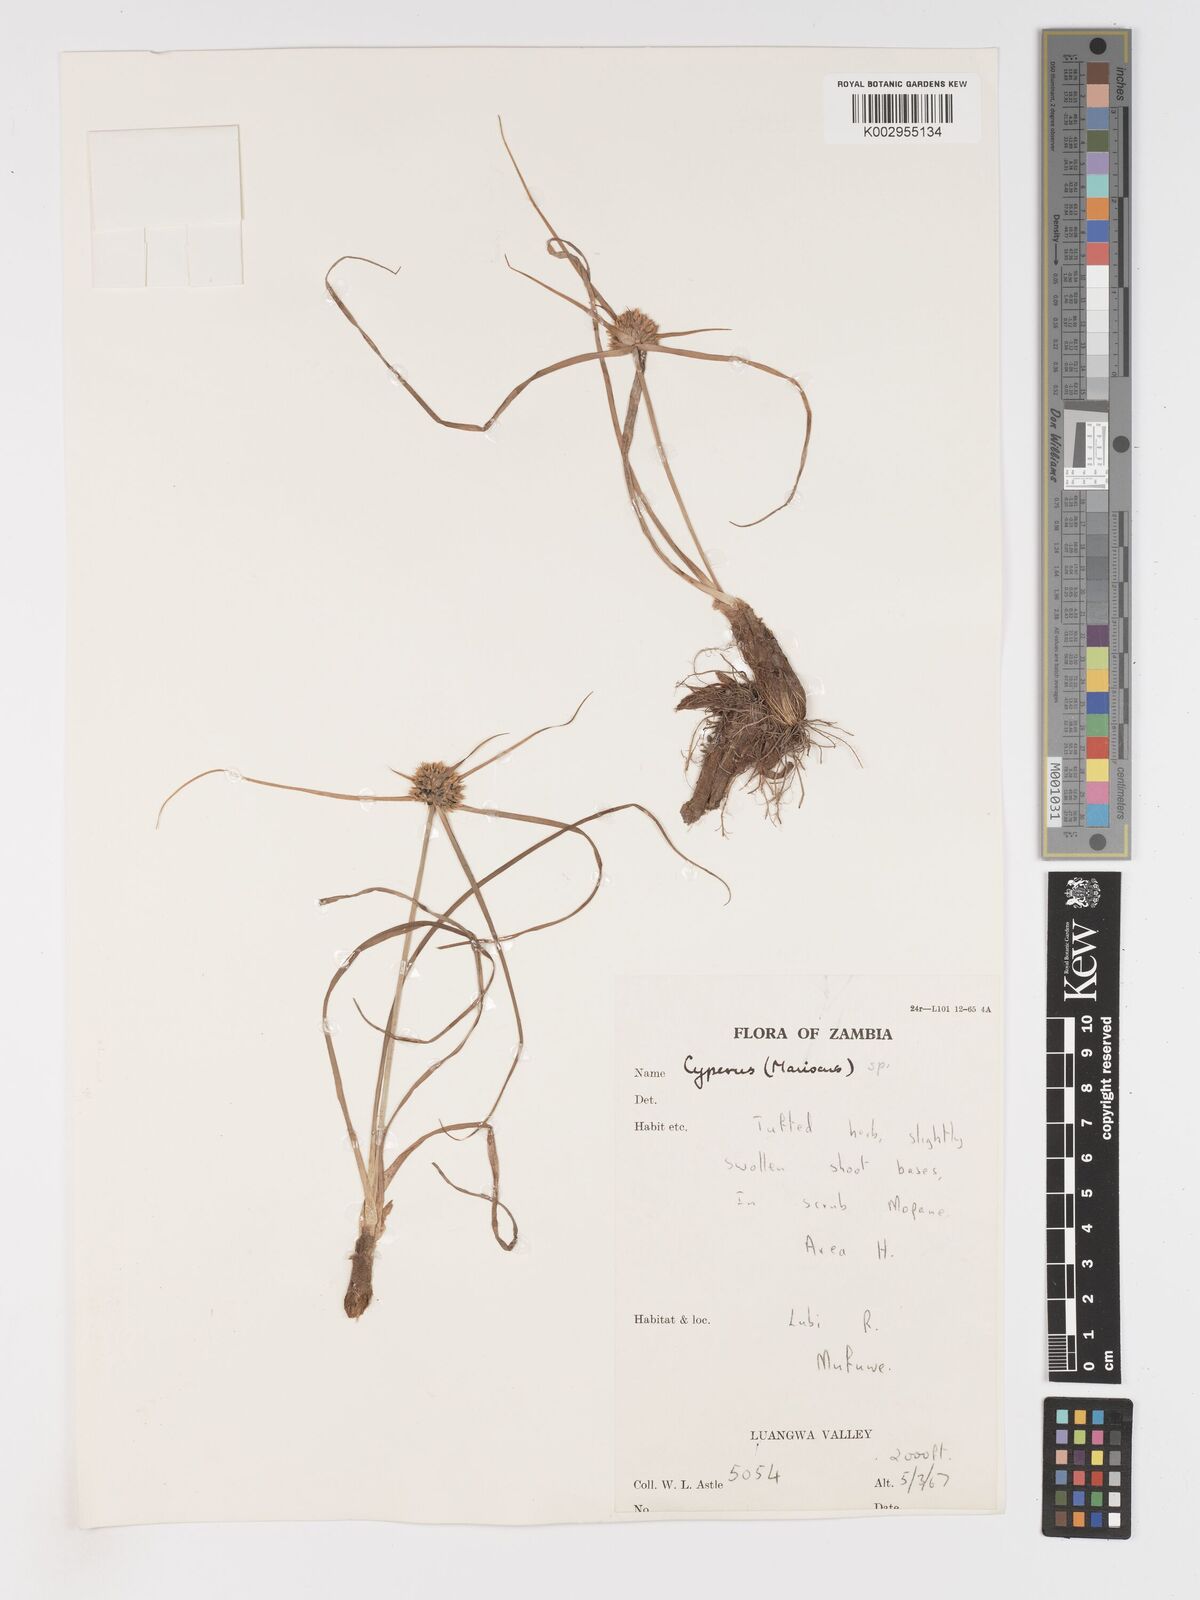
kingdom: Plantae
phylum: Tracheophyta
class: Liliopsida
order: Poales
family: Cyperaceae
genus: Cyperus
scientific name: Cyperus dubius
